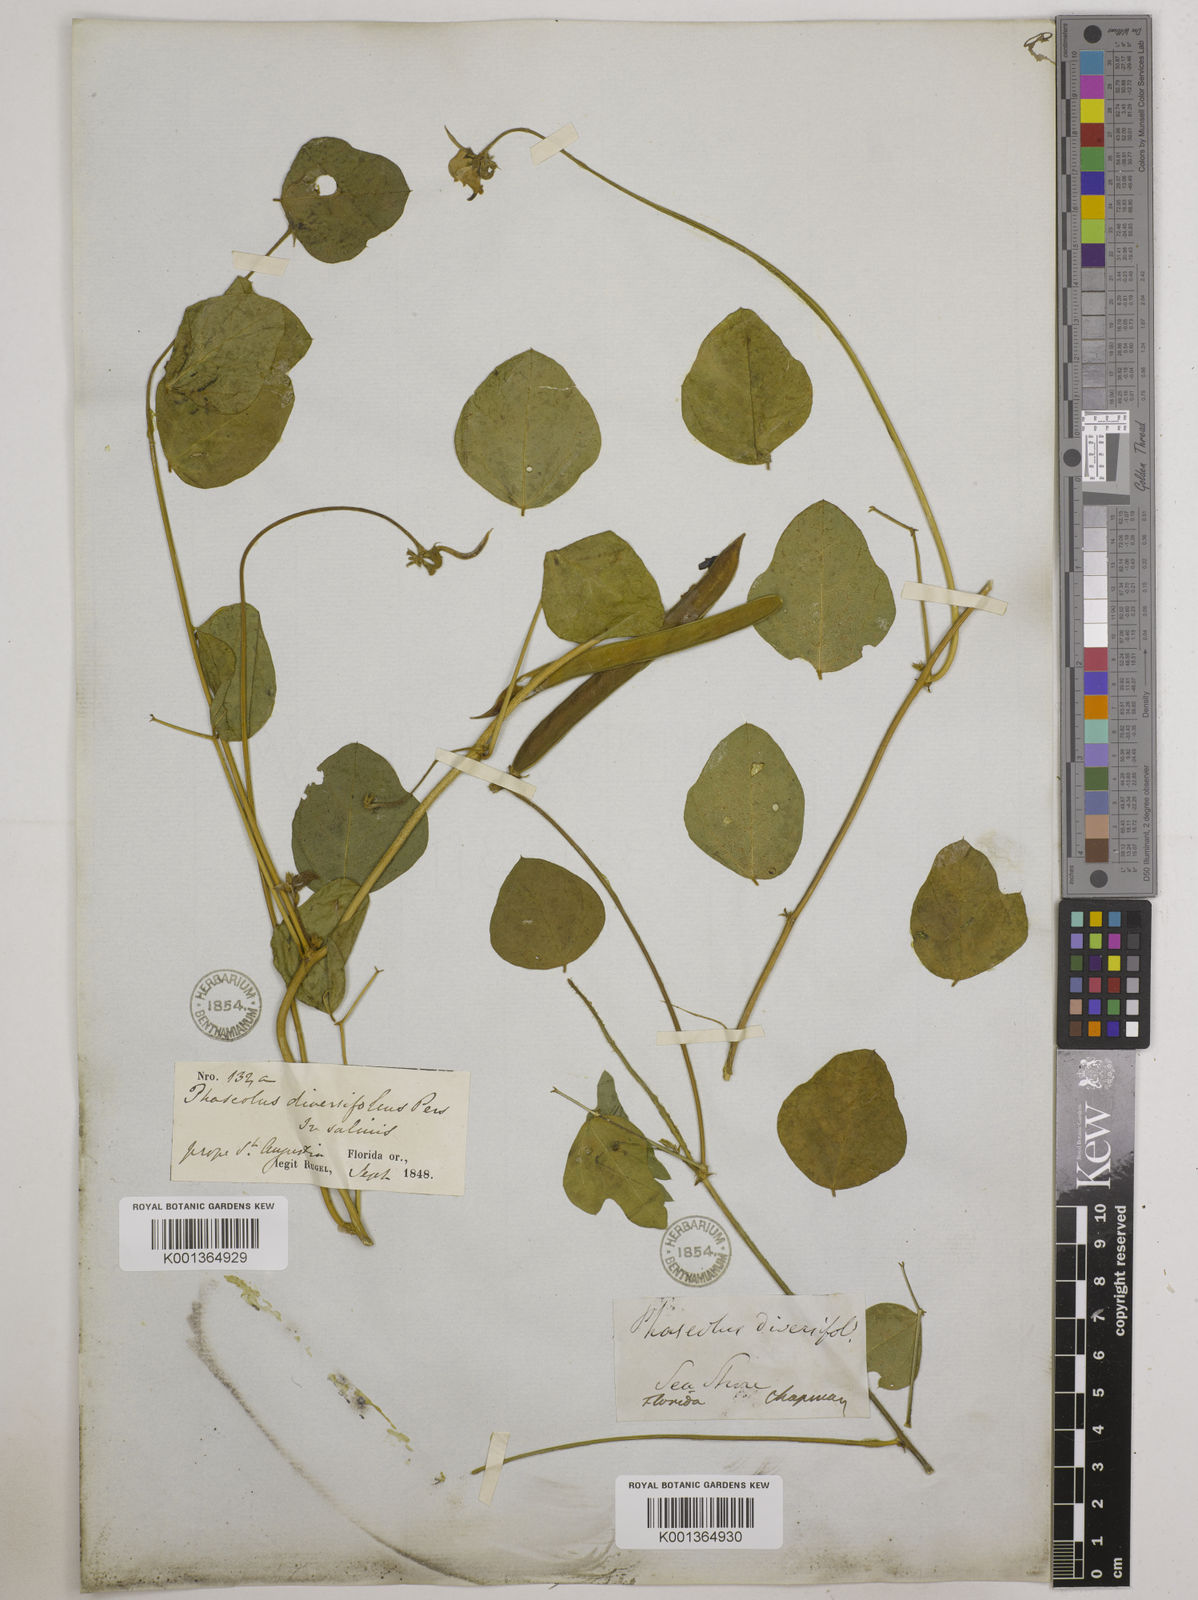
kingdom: Plantae
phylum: Tracheophyta
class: Magnoliopsida
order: Fabales
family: Fabaceae
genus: Strophostyles
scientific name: Strophostyles
